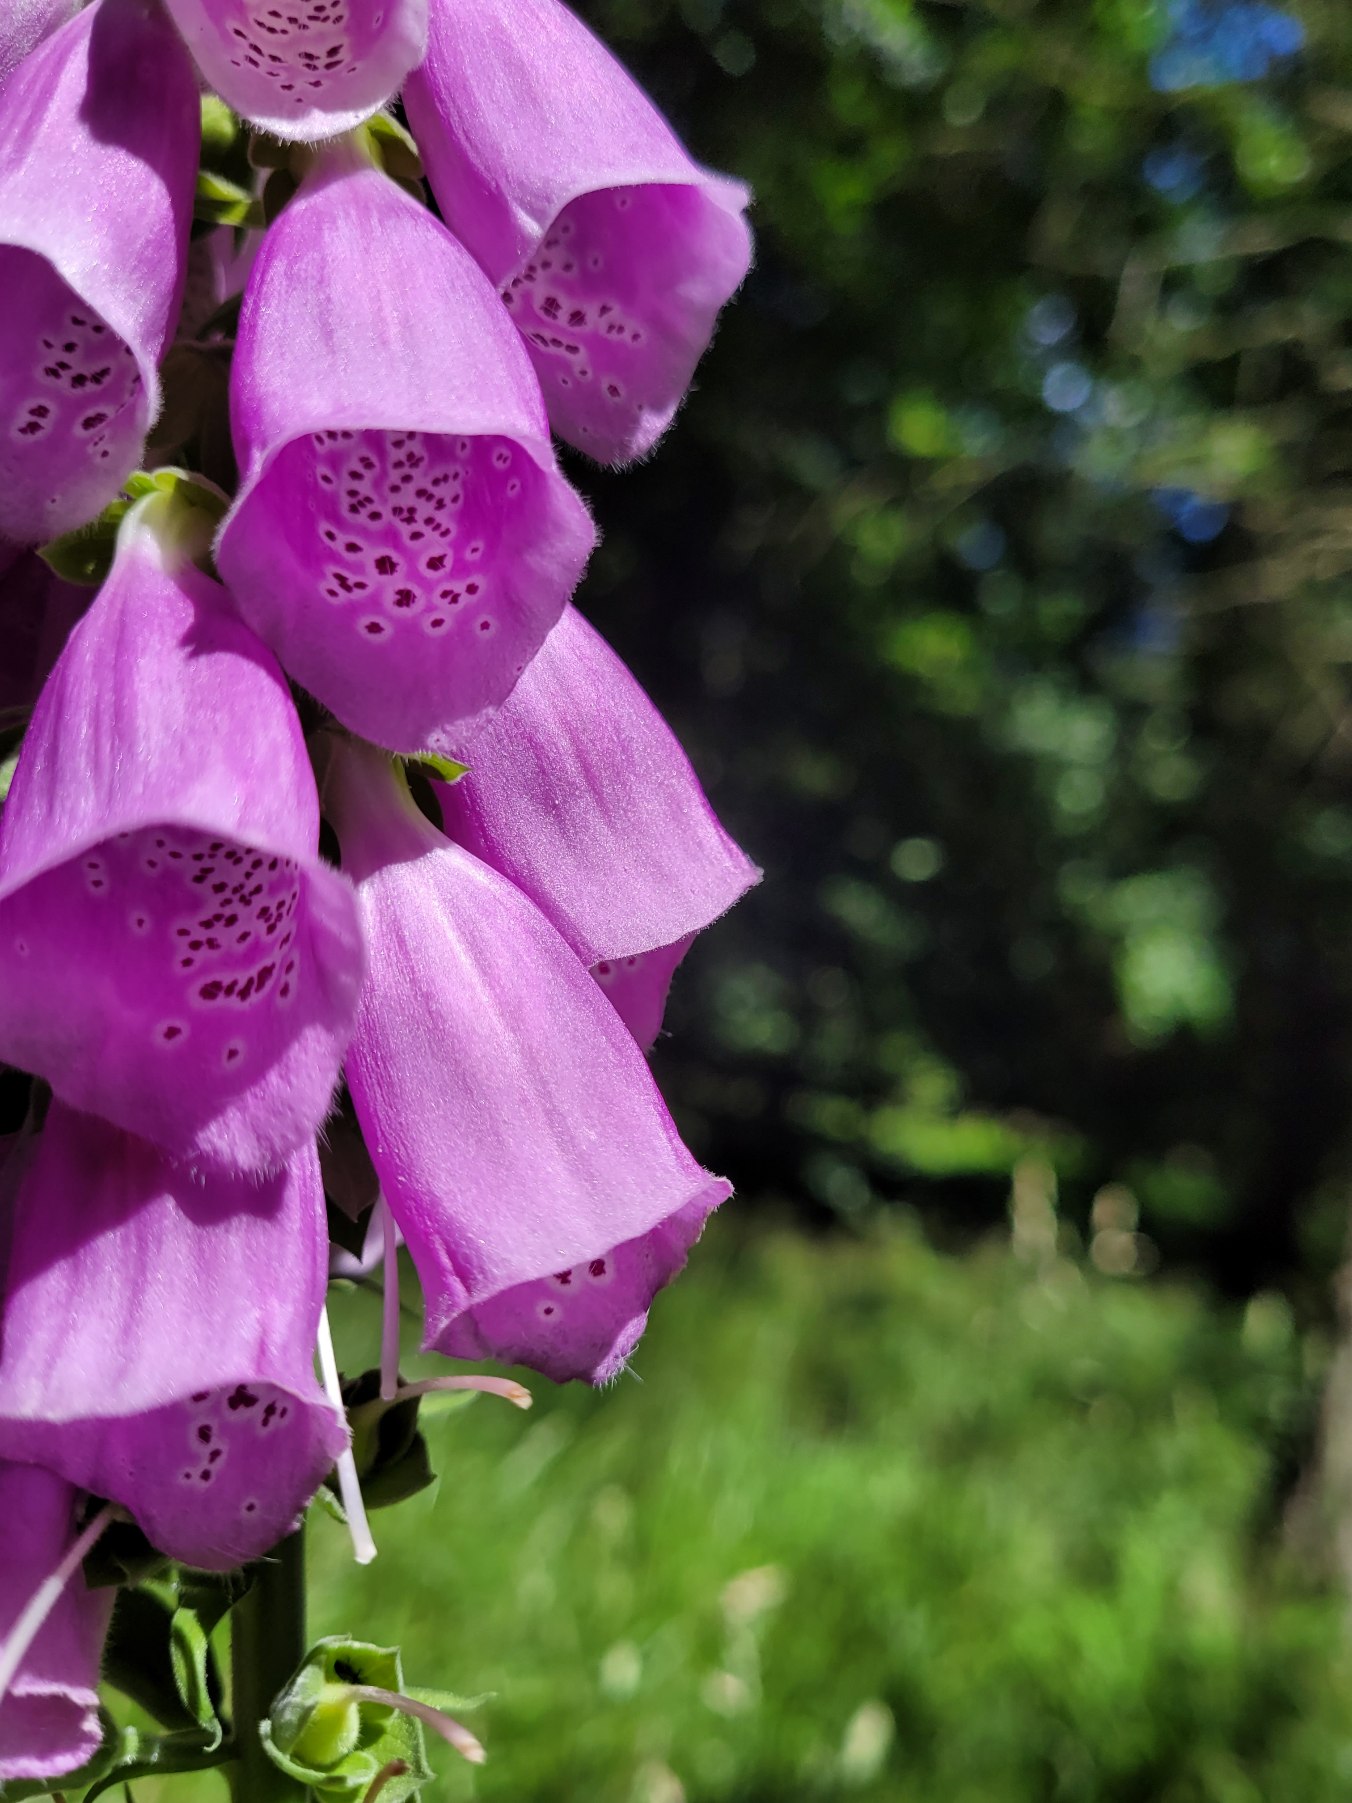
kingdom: Plantae
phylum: Tracheophyta
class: Magnoliopsida
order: Lamiales
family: Plantaginaceae
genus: Digitalis
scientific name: Digitalis purpurea
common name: Almindelig fingerbøl
